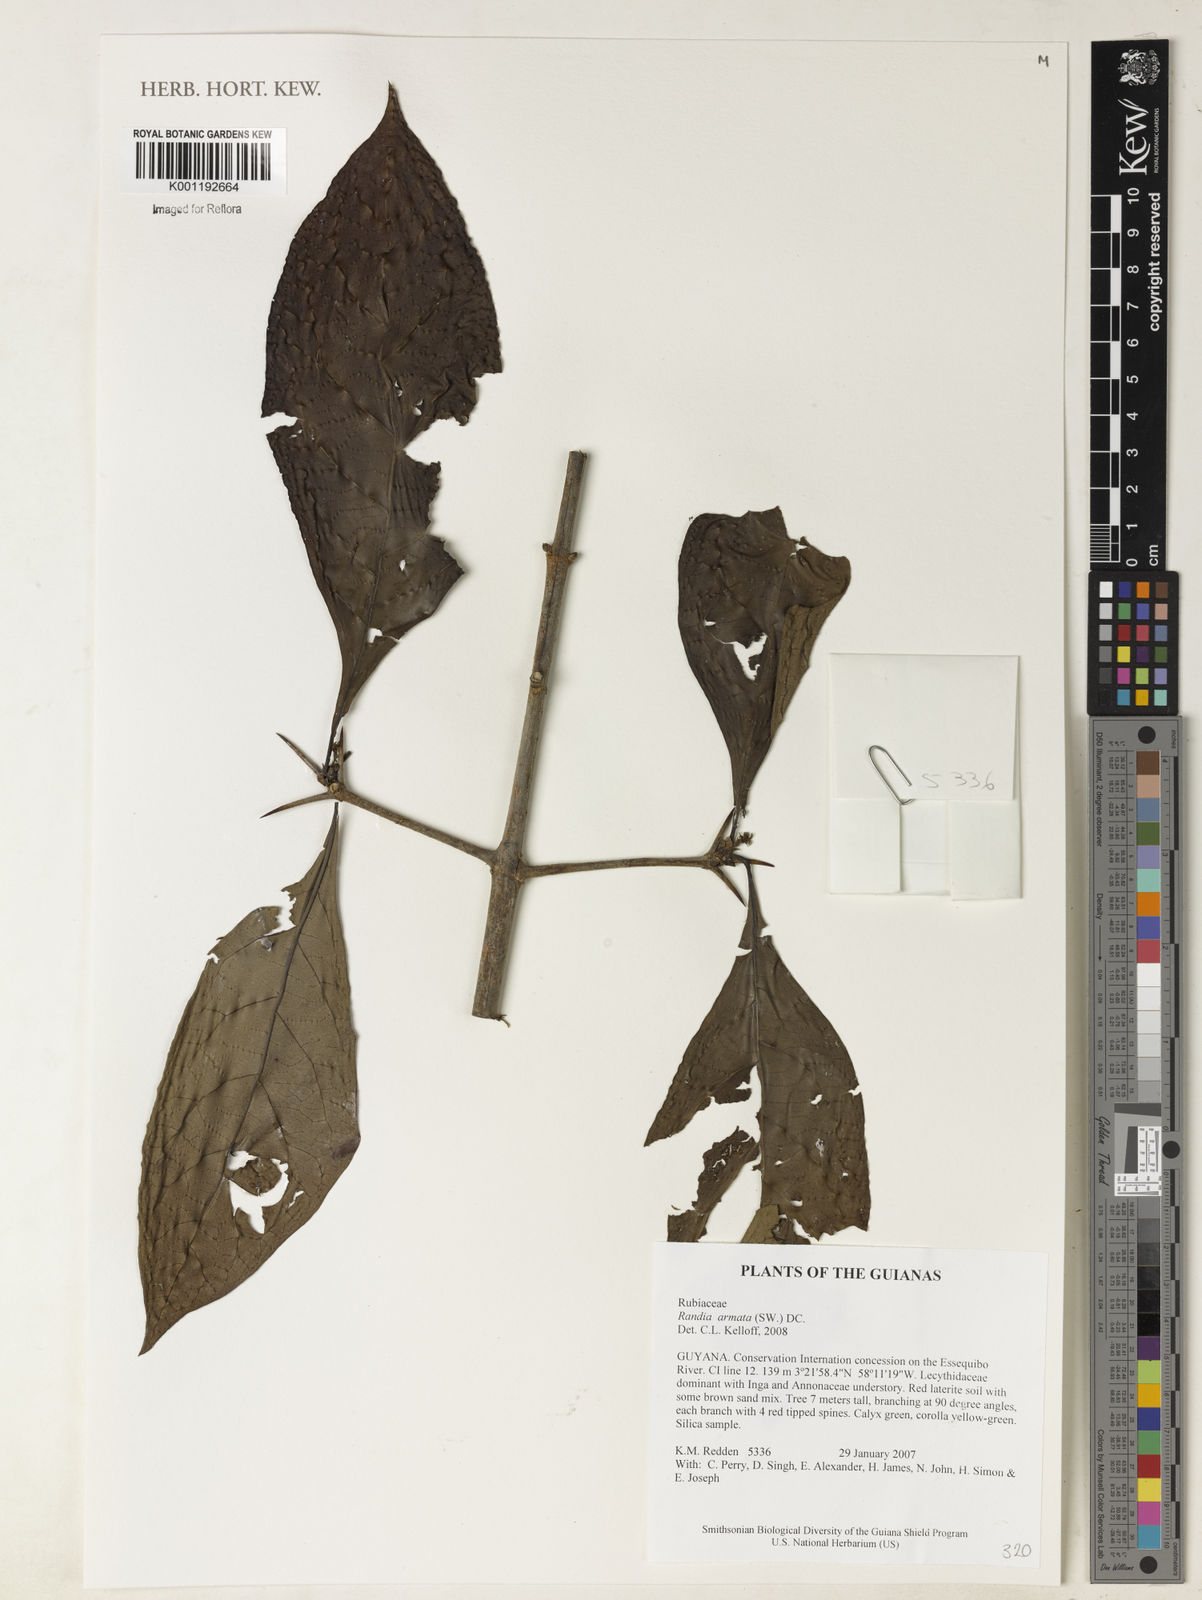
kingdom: Plantae
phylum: Tracheophyta
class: Magnoliopsida
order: Gentianales
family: Rubiaceae
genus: Randia
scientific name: Randia armata
